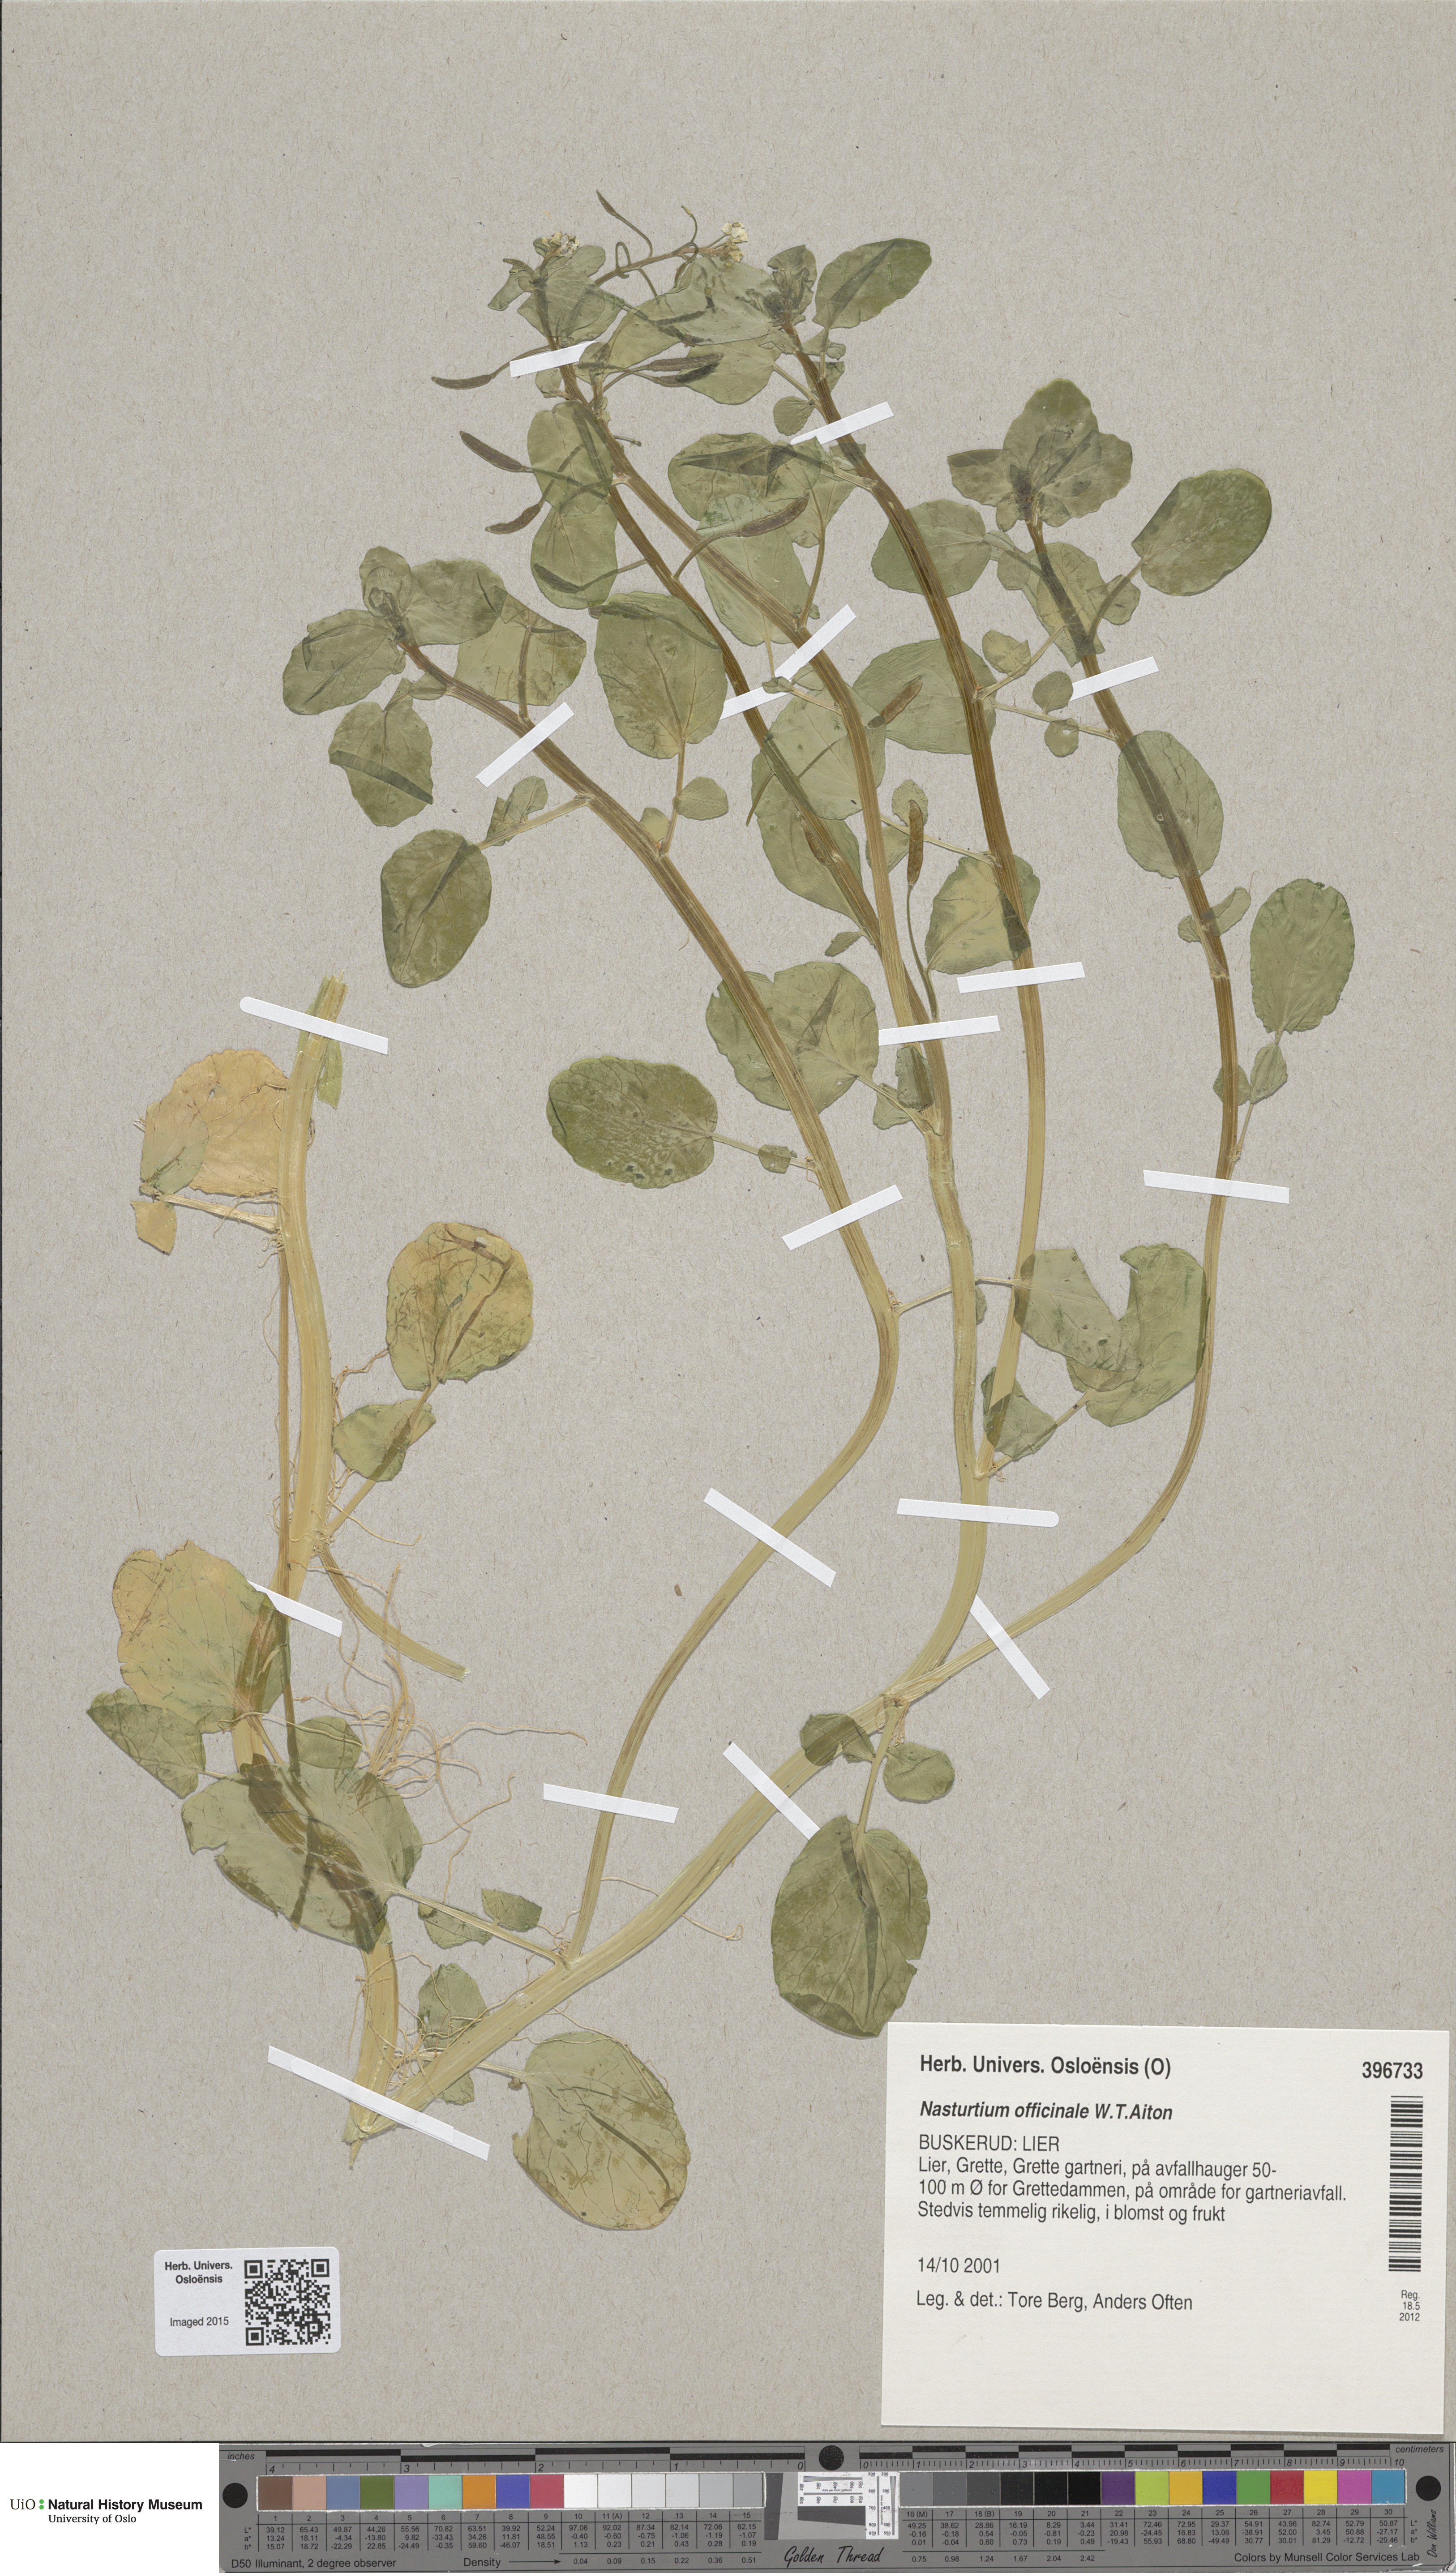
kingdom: Plantae
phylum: Tracheophyta
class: Magnoliopsida
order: Brassicales
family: Brassicaceae
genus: Nasturtium
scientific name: Nasturtium officinale
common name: Watercress
